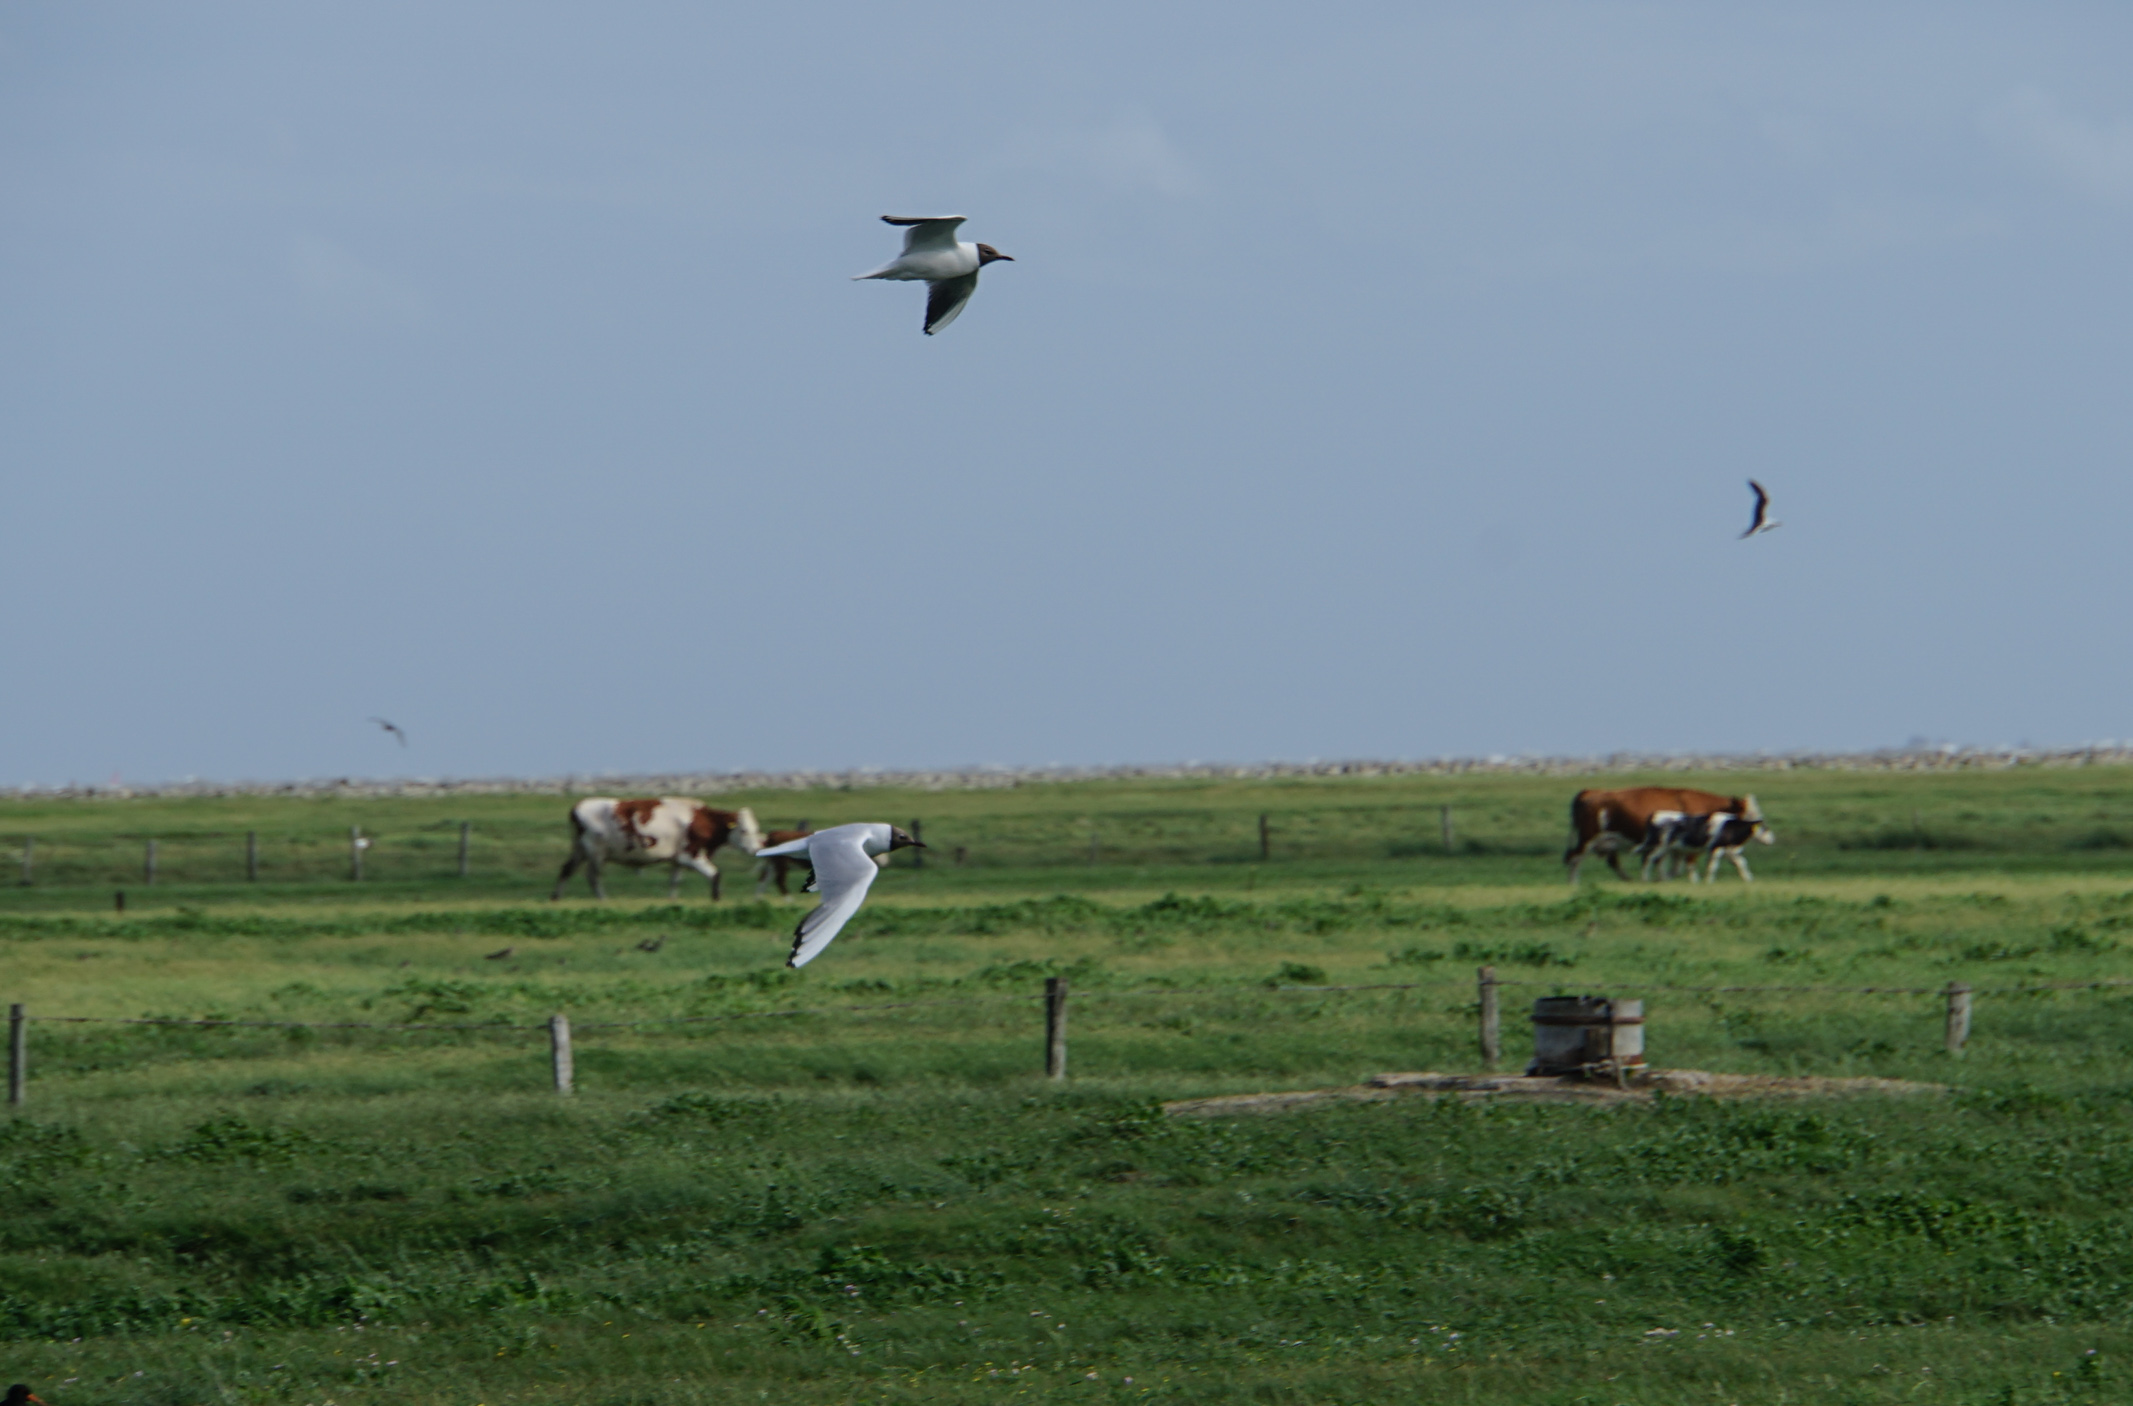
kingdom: Animalia
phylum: Chordata
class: Aves
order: Charadriiformes
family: Laridae
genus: Chroicocephalus
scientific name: Chroicocephalus ridibundus
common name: Black-headed gull
